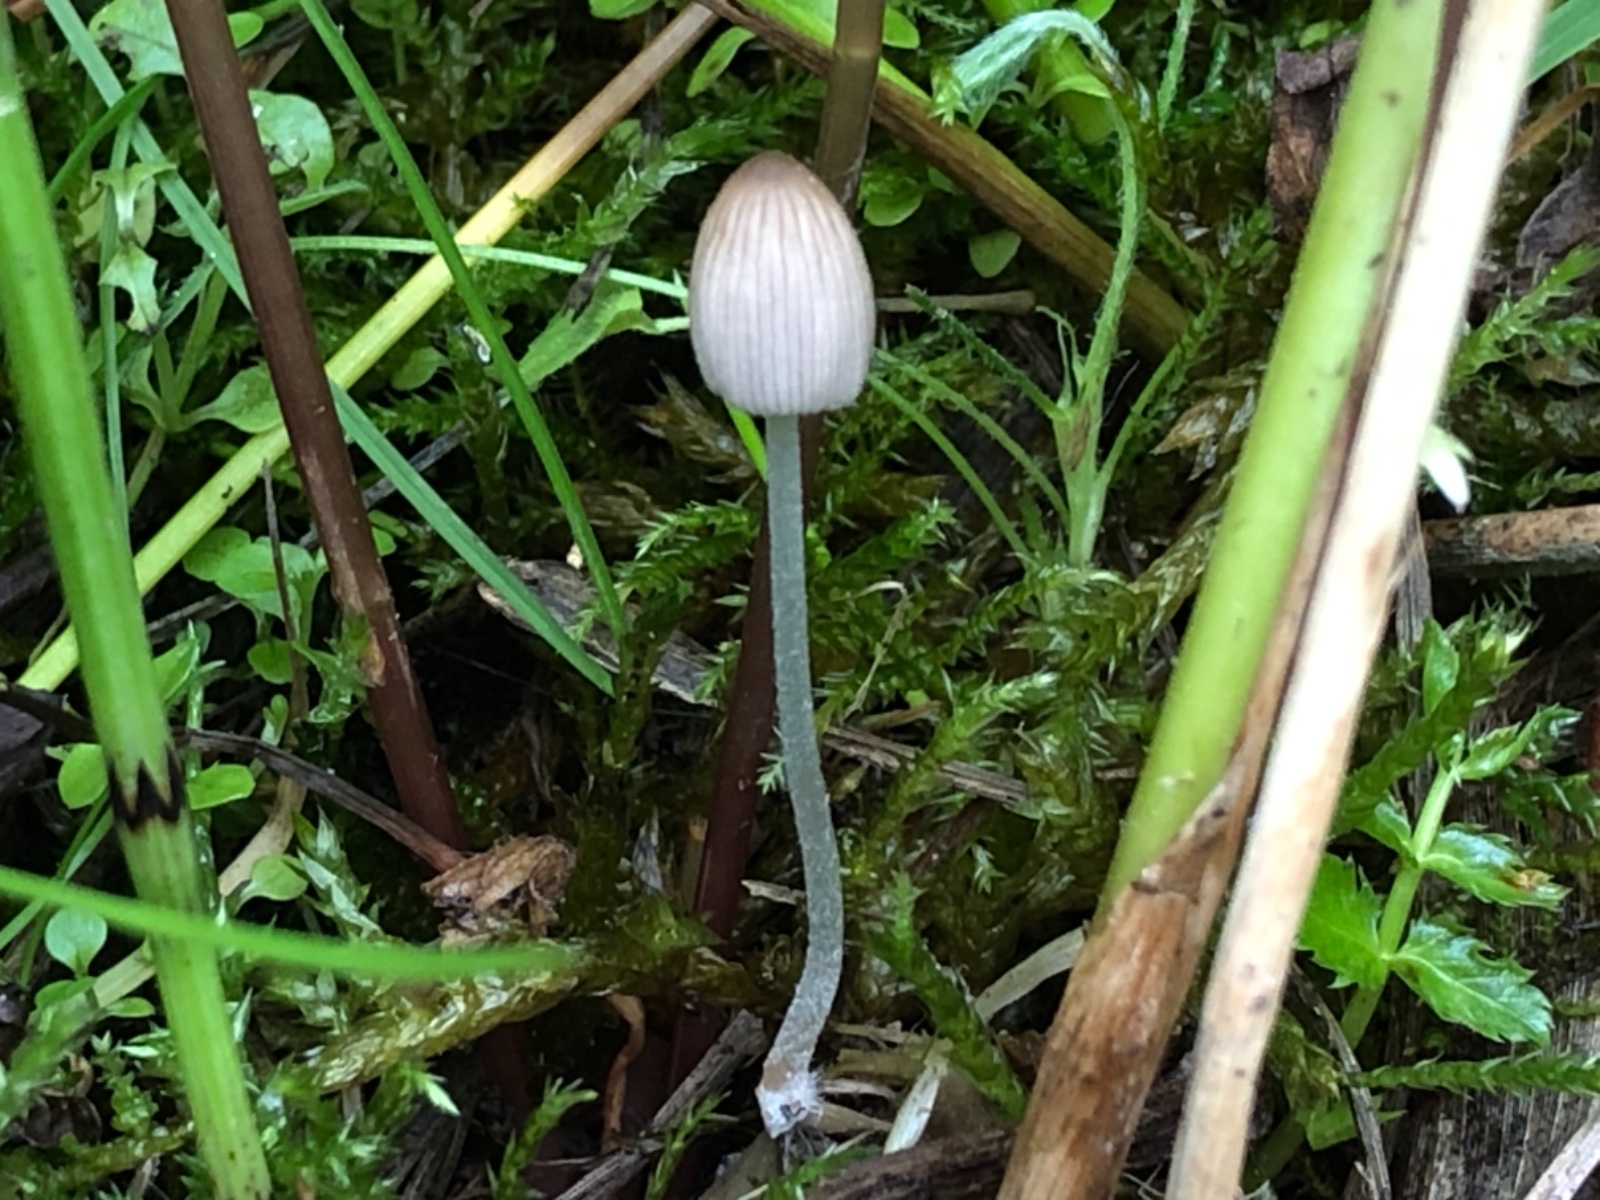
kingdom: Fungi
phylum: Basidiomycota
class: Agaricomycetes
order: Agaricales
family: Psathyrellaceae
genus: Coprinellus
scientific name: Coprinellus
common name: blækhat
